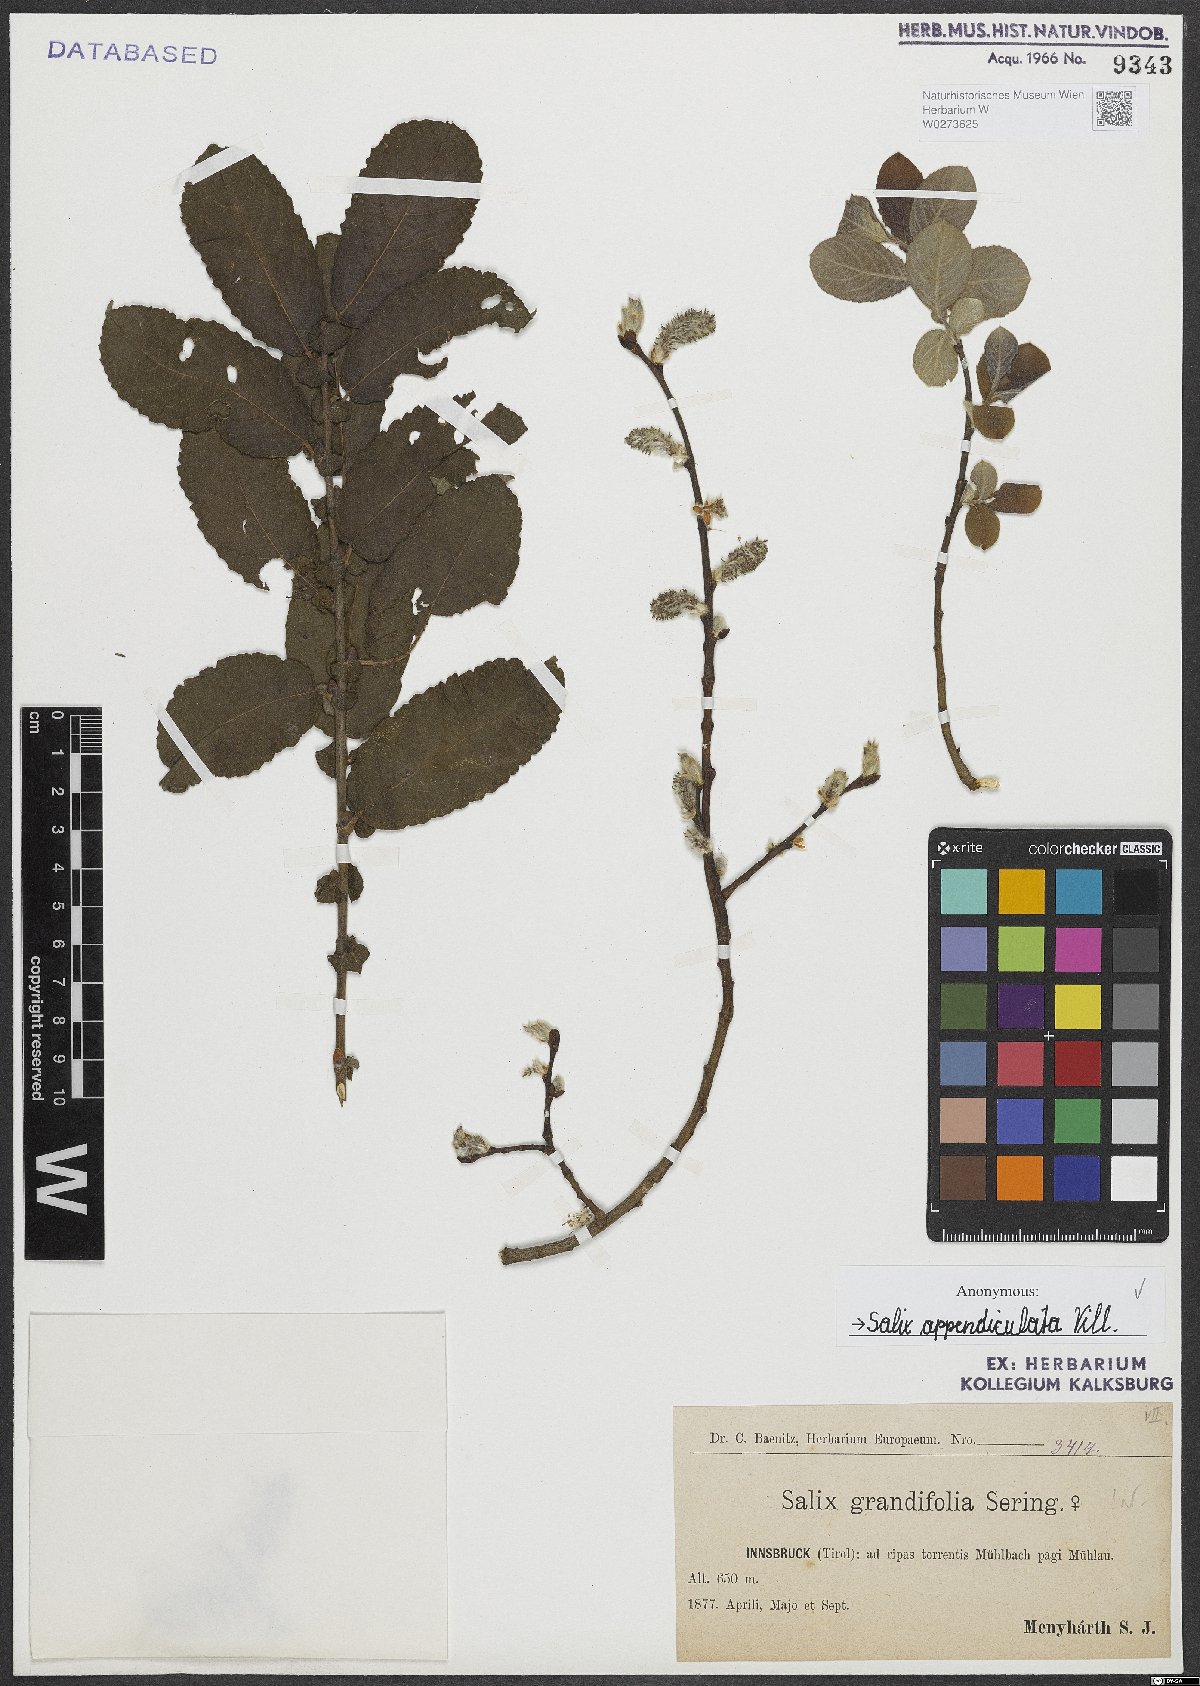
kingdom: Plantae
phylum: Tracheophyta
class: Magnoliopsida
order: Malpighiales
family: Salicaceae
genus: Salix
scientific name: Salix appendiculata
